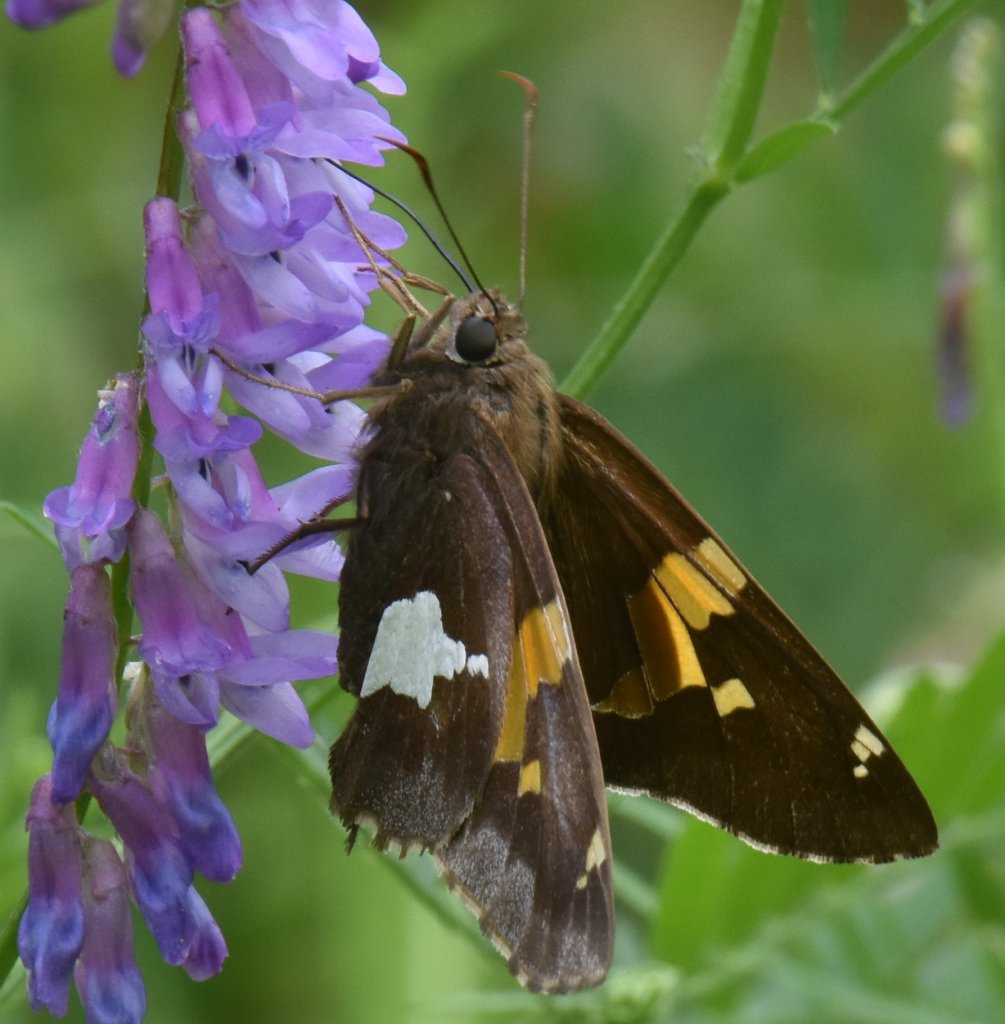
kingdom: Animalia
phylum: Arthropoda
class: Insecta
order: Lepidoptera
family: Hesperiidae
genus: Epargyreus
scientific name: Epargyreus clarus
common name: Silver-spotted Skipper
